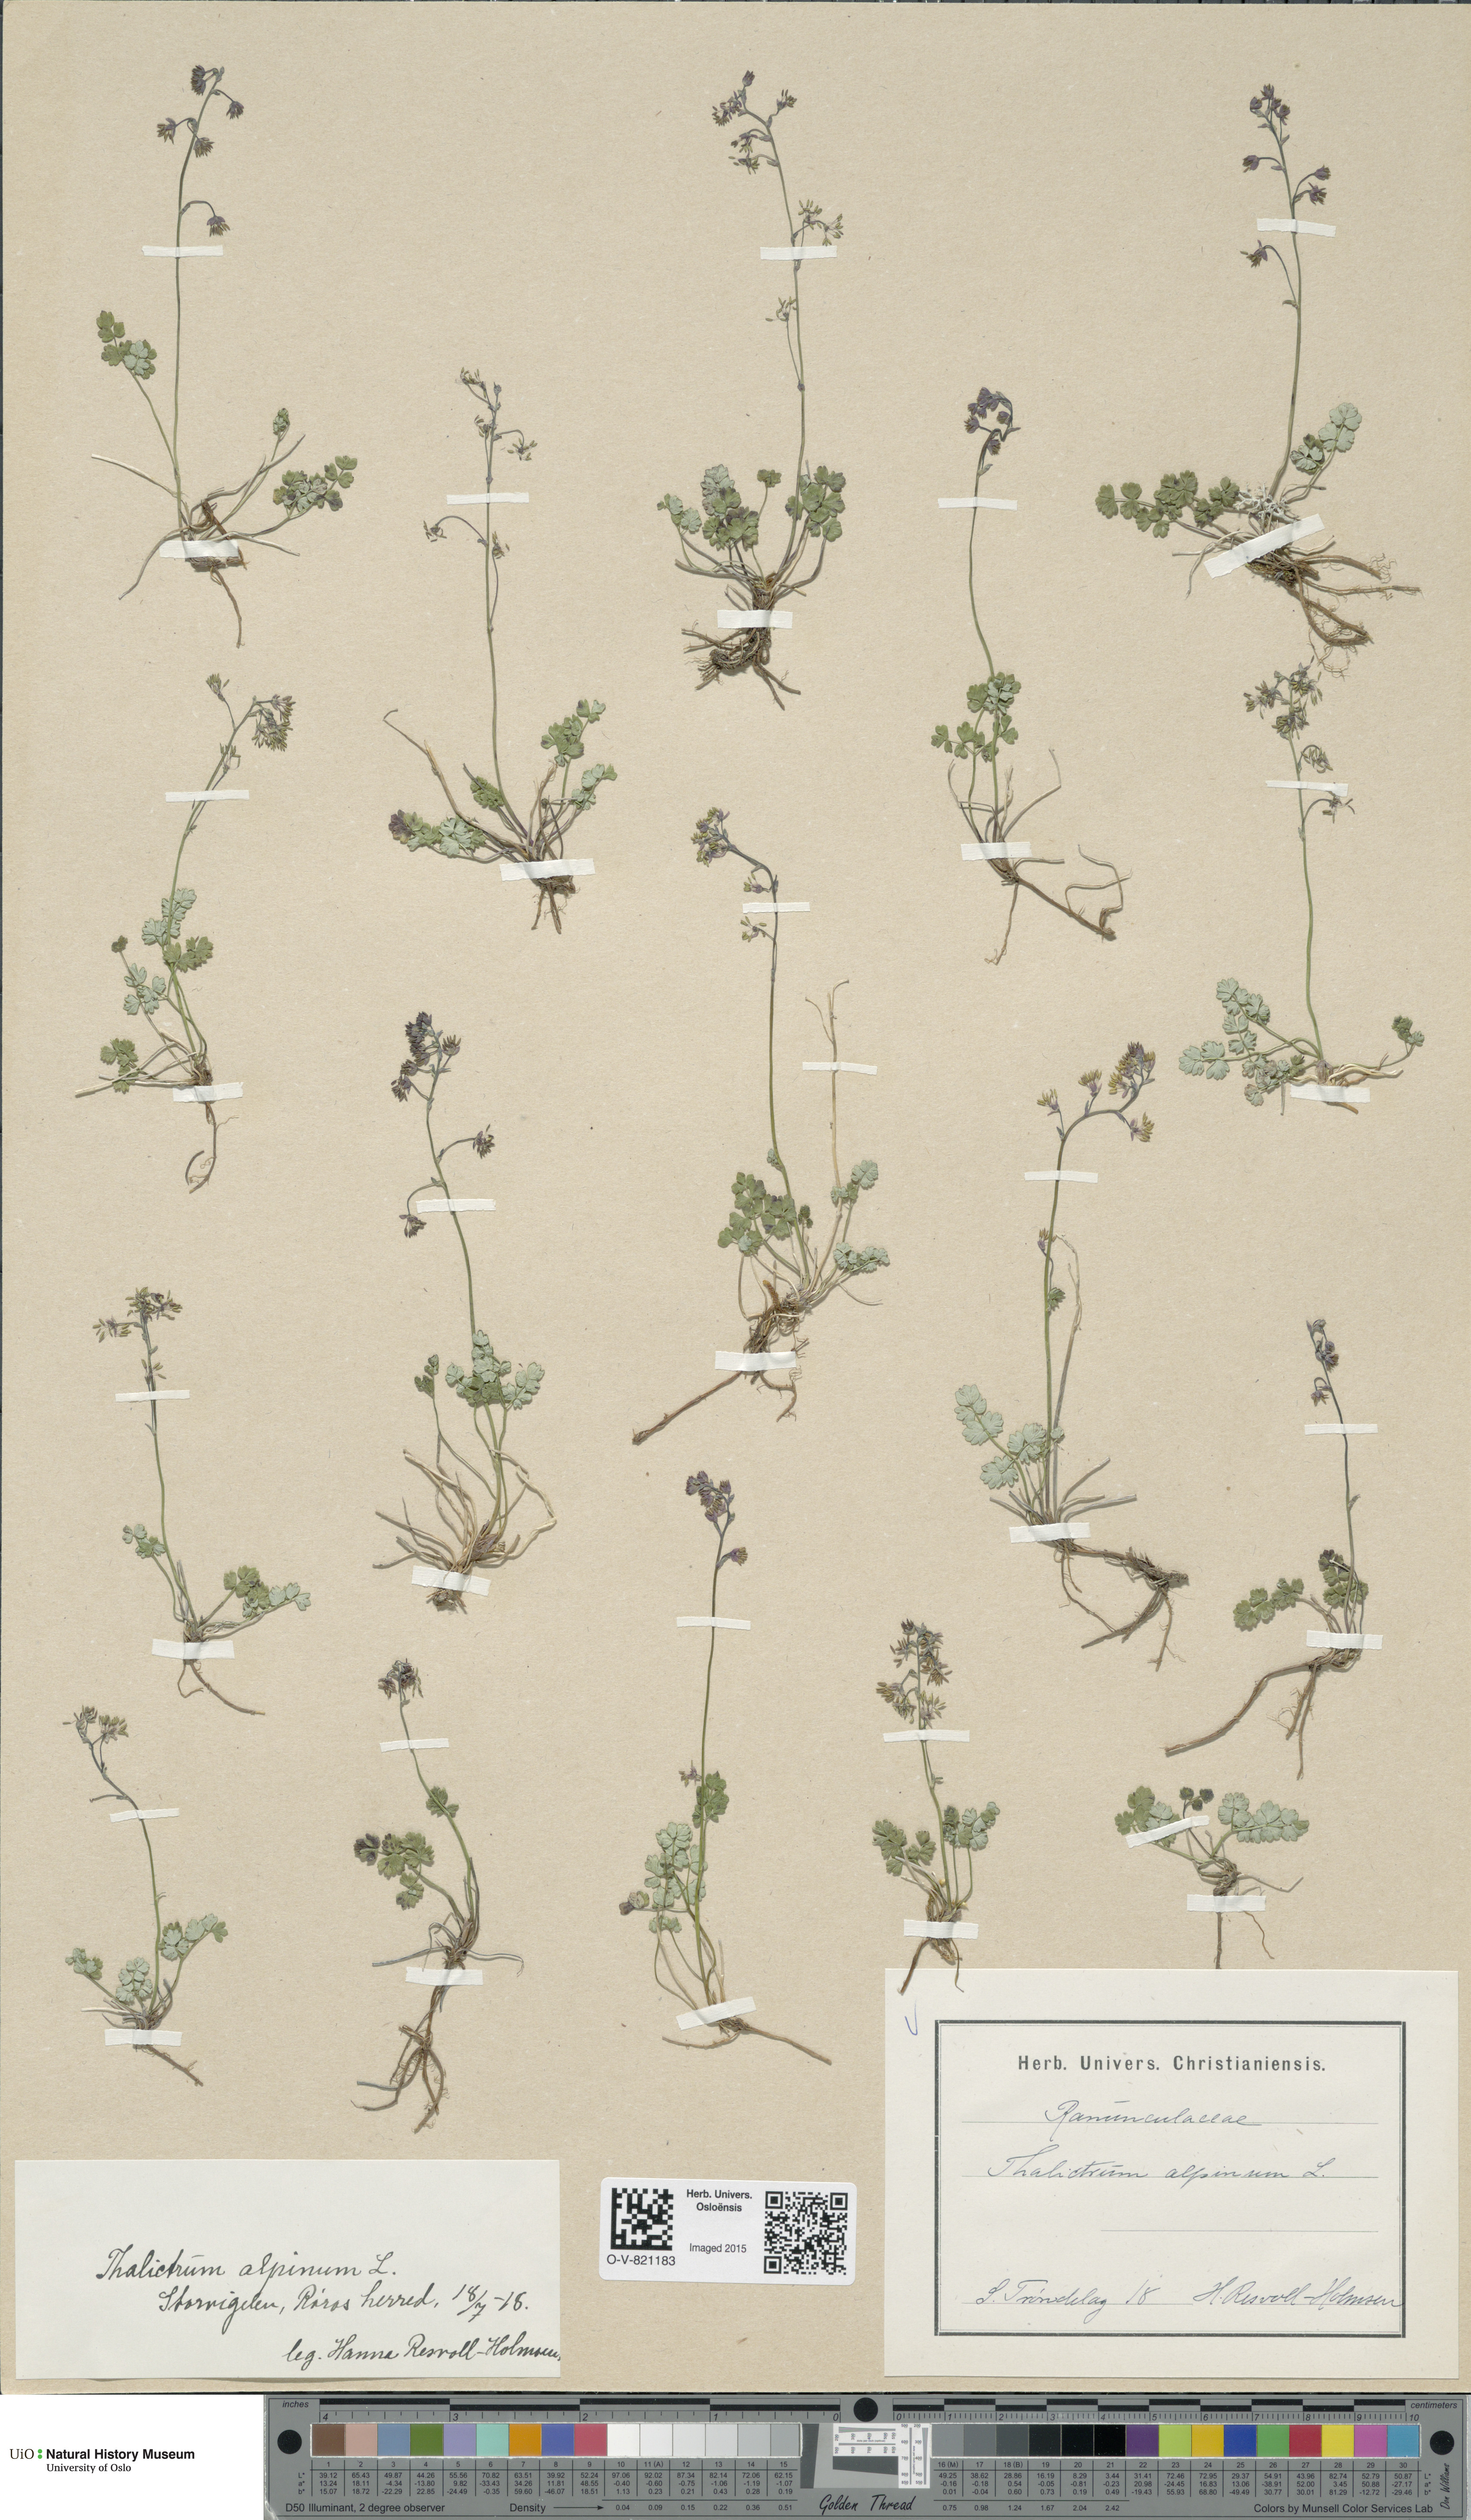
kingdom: Plantae
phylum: Tracheophyta
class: Magnoliopsida
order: Ranunculales
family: Ranunculaceae
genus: Thalictrum
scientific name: Thalictrum alpinum
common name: Alpine meadow-rue
